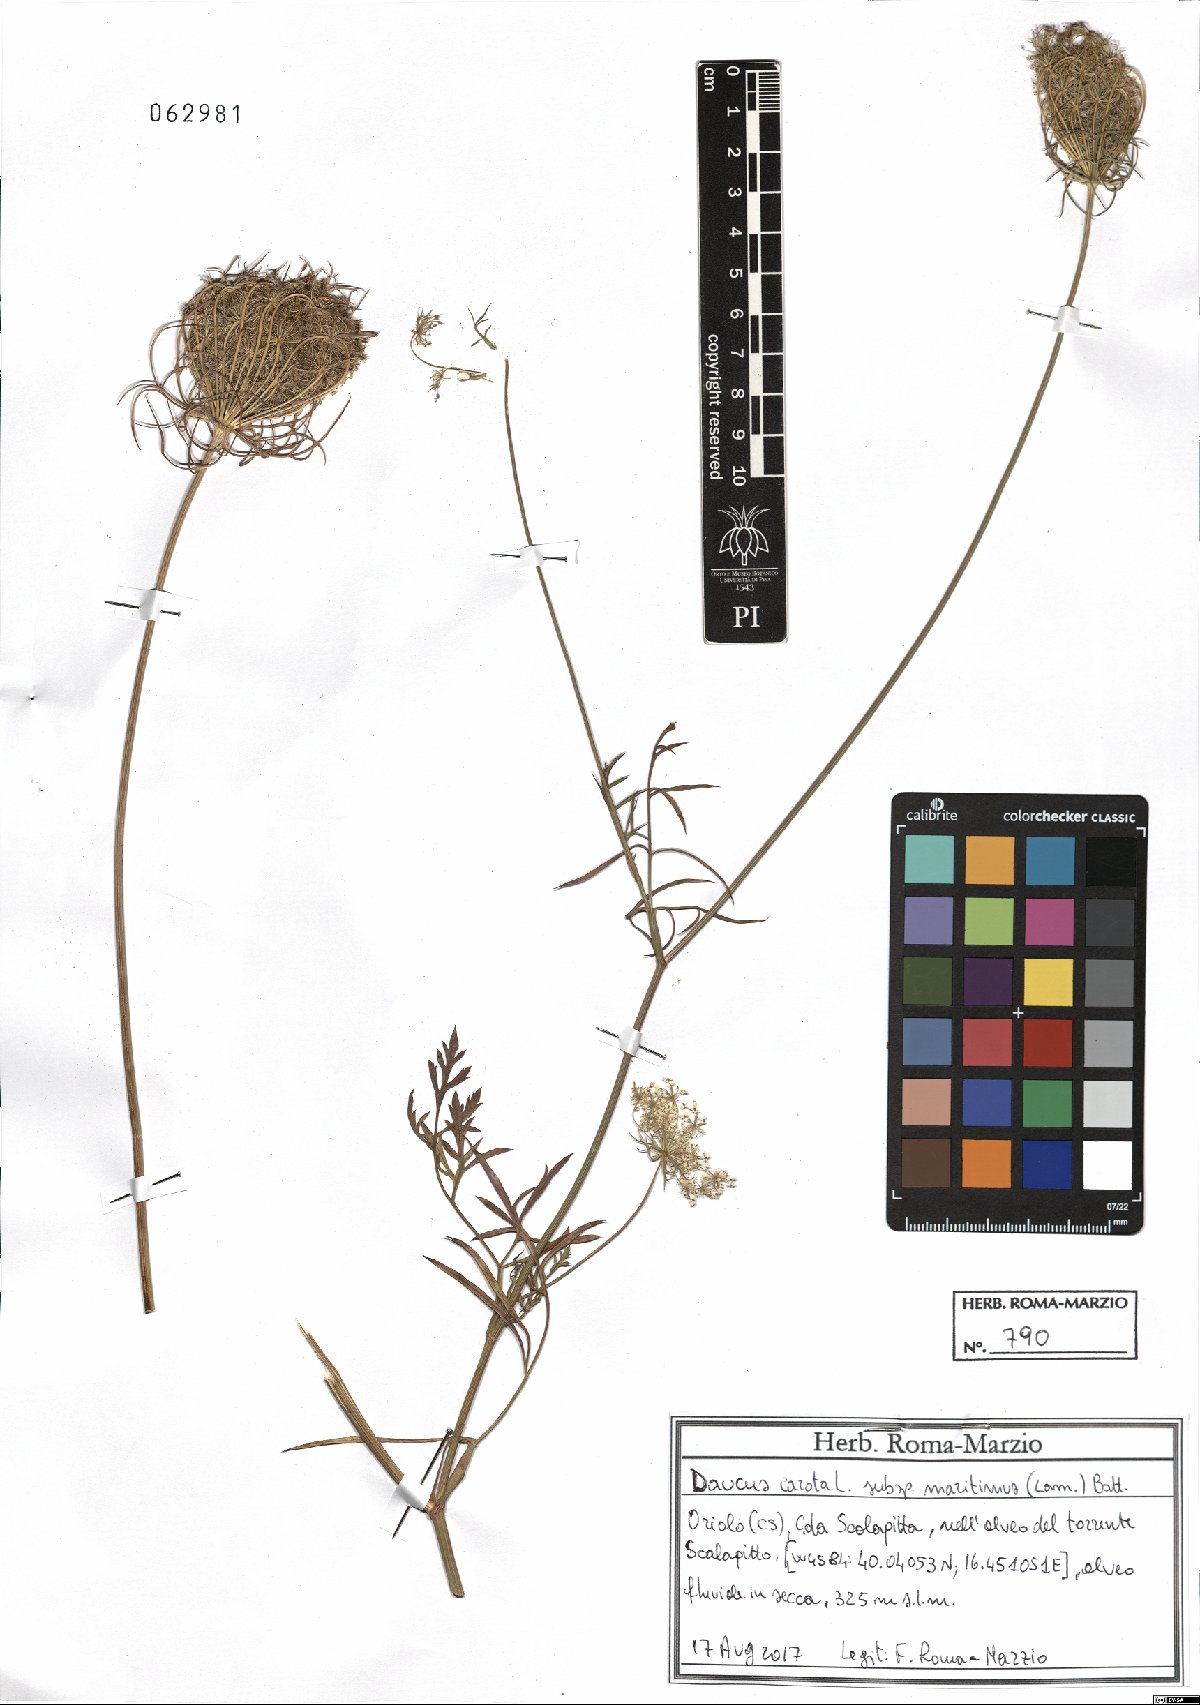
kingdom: Plantae
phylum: Tracheophyta
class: Magnoliopsida
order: Apiales
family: Apiaceae
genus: Daucus
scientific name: Daucus carota
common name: Wild carrot
